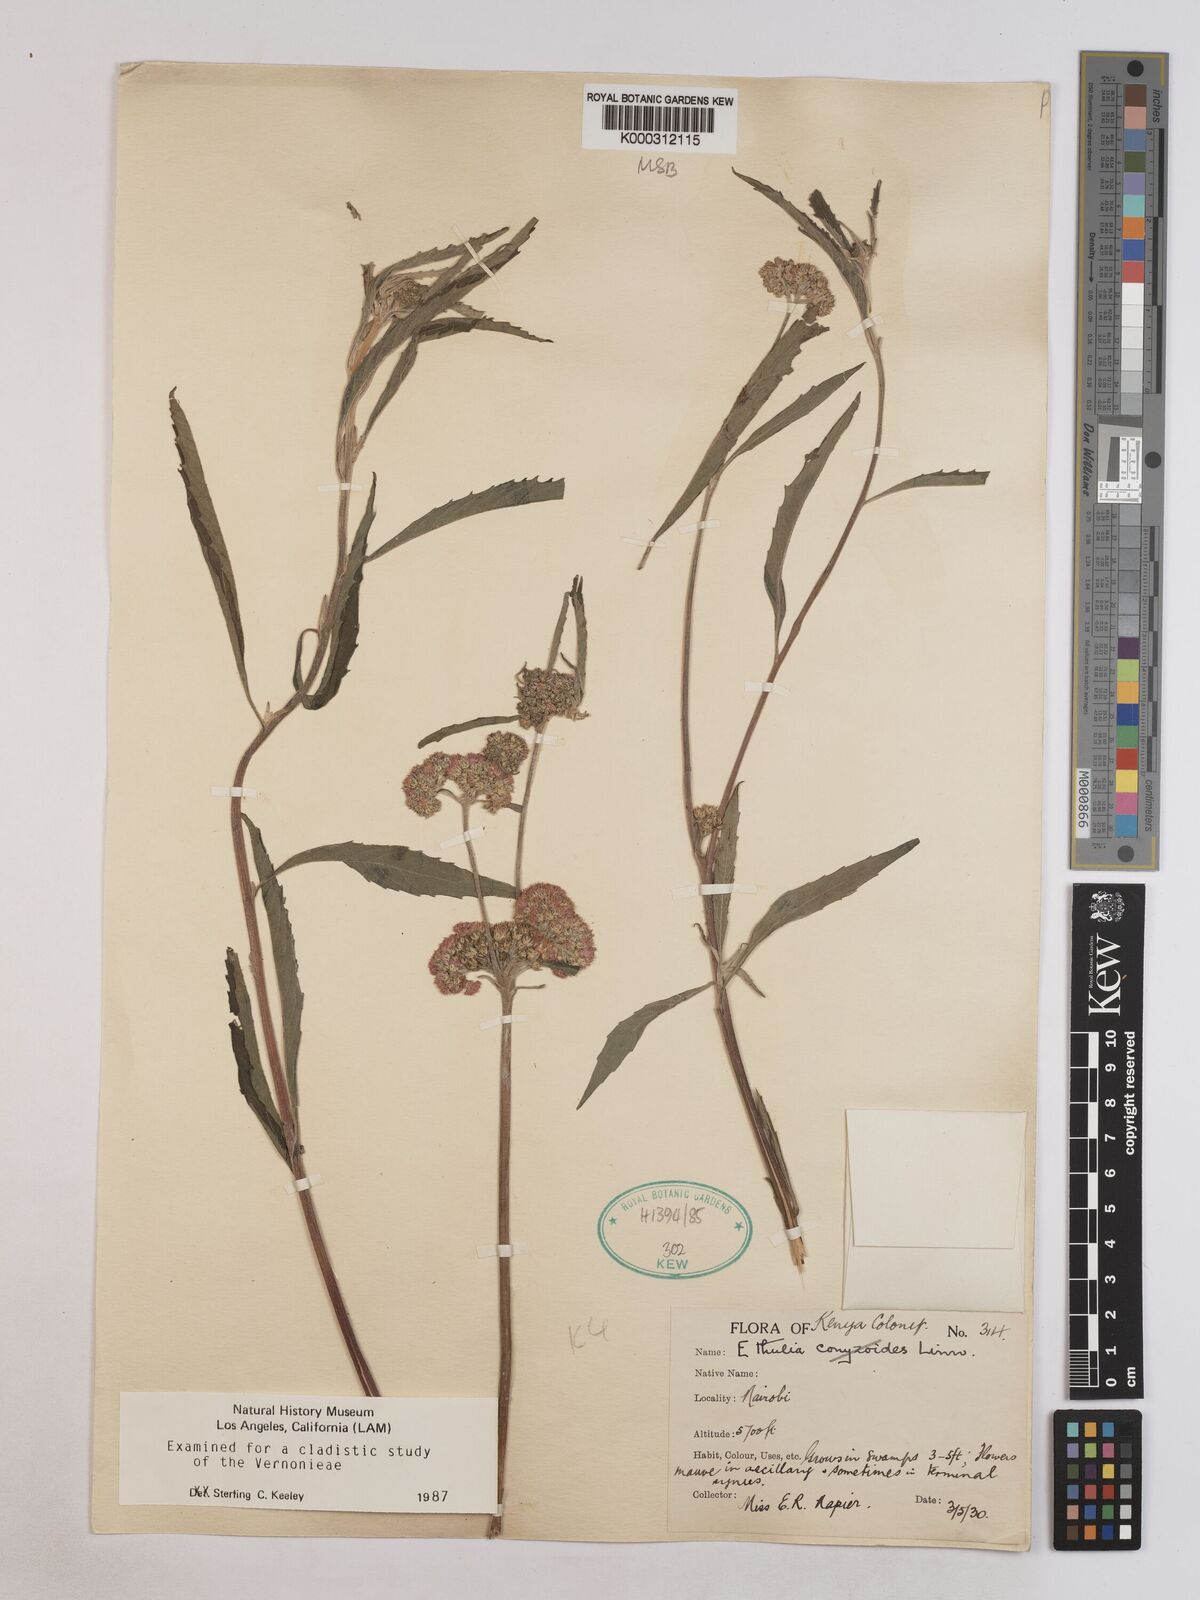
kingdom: Plantae
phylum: Tracheophyta
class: Magnoliopsida
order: Asterales
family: Asteraceae
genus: Ethulia
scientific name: Ethulia bicostata
